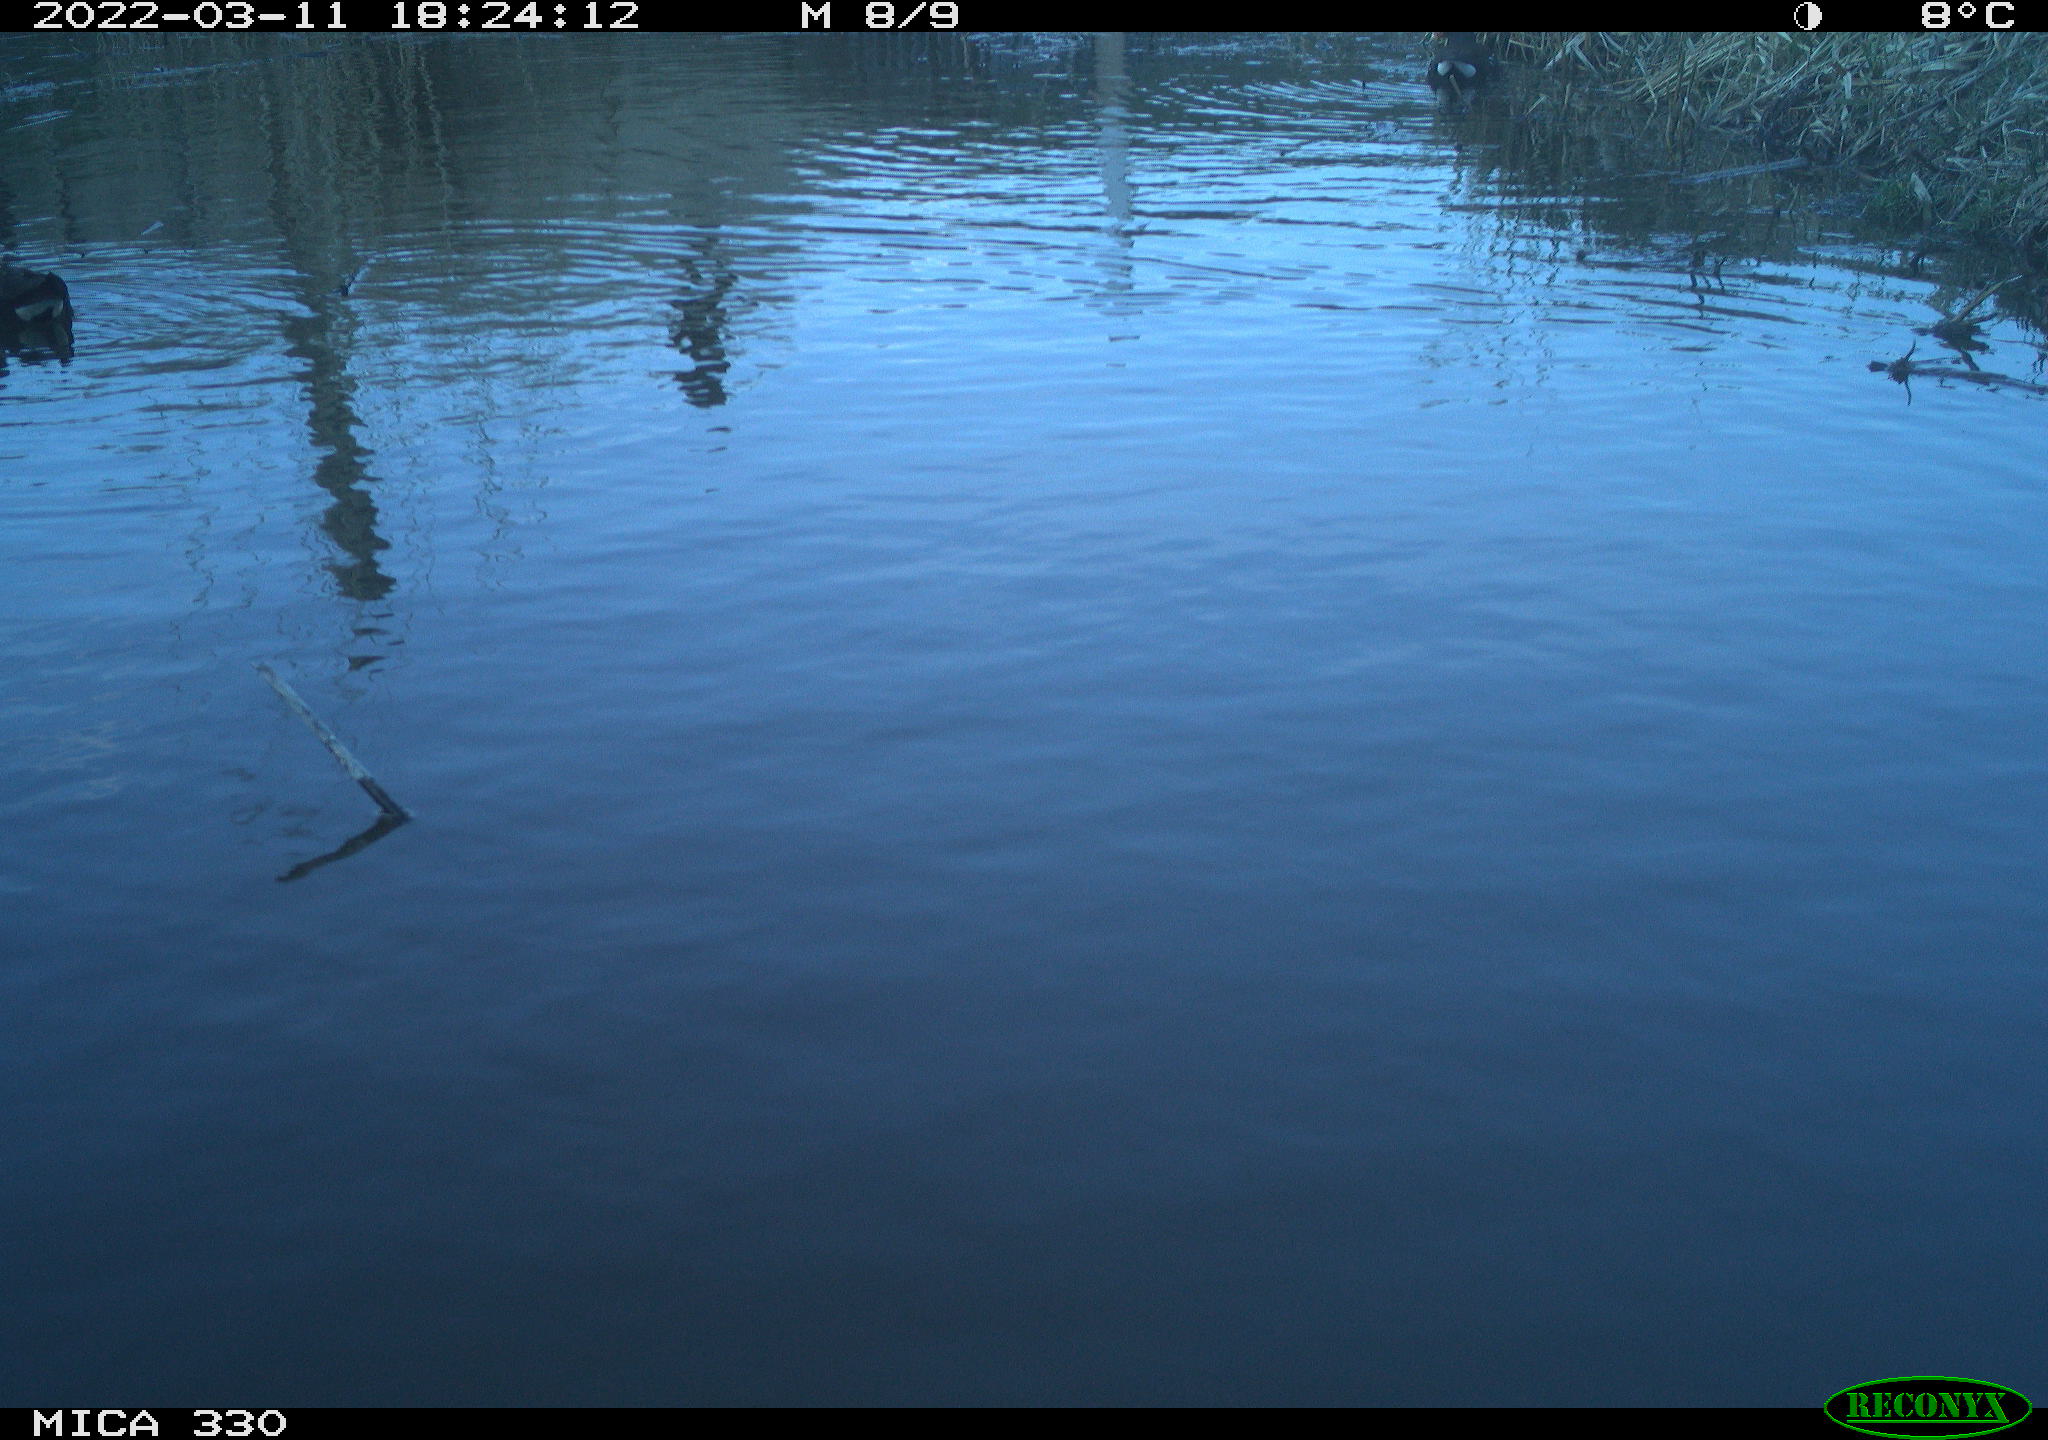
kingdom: Animalia
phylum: Chordata
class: Aves
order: Gruiformes
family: Rallidae
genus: Gallinula
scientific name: Gallinula chloropus
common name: Common moorhen
